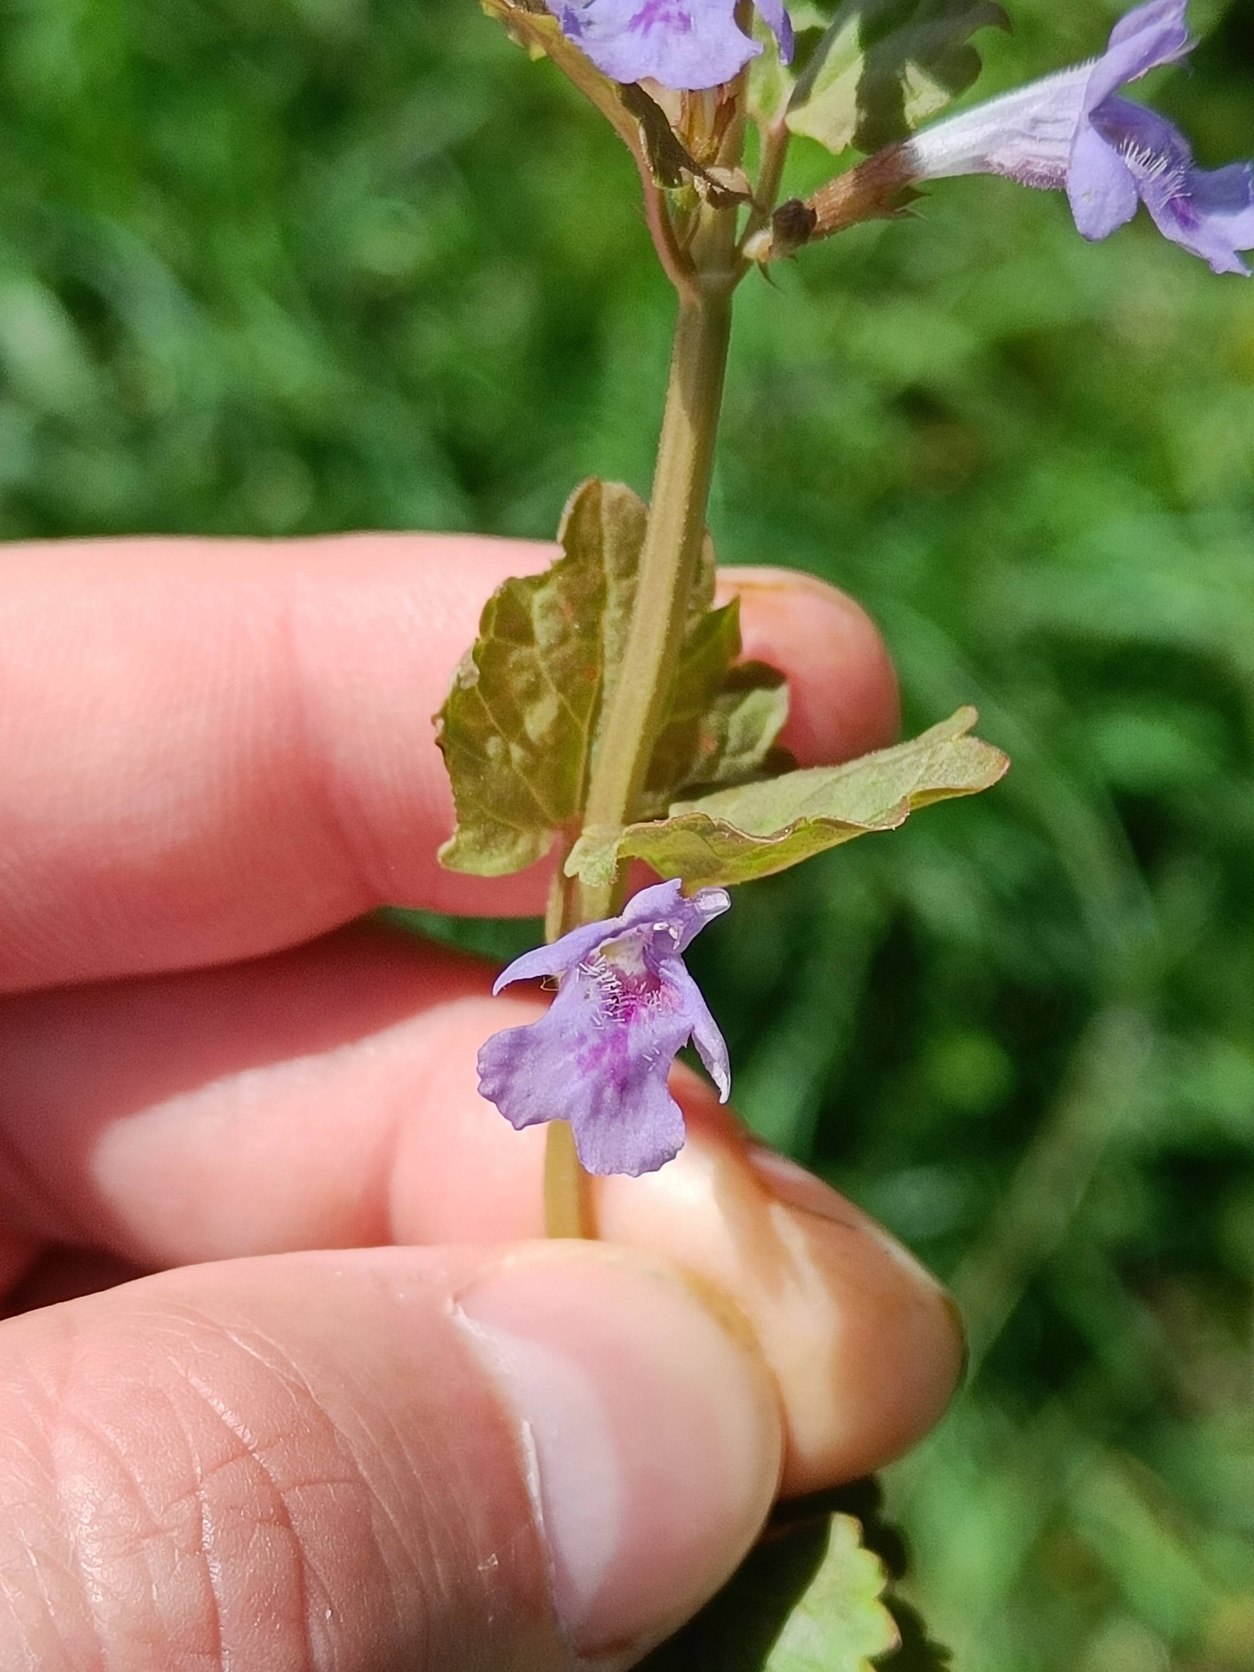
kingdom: Plantae
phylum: Tracheophyta
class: Magnoliopsida
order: Lamiales
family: Lamiaceae
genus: Glechoma
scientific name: Glechoma hederacea
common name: Korsknap
